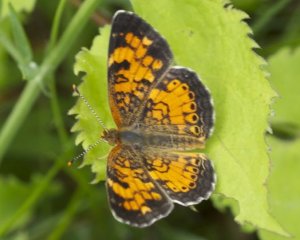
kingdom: Animalia
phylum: Arthropoda
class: Insecta
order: Lepidoptera
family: Nymphalidae
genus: Phyciodes
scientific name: Phyciodes tharos
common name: Northern Crescent
